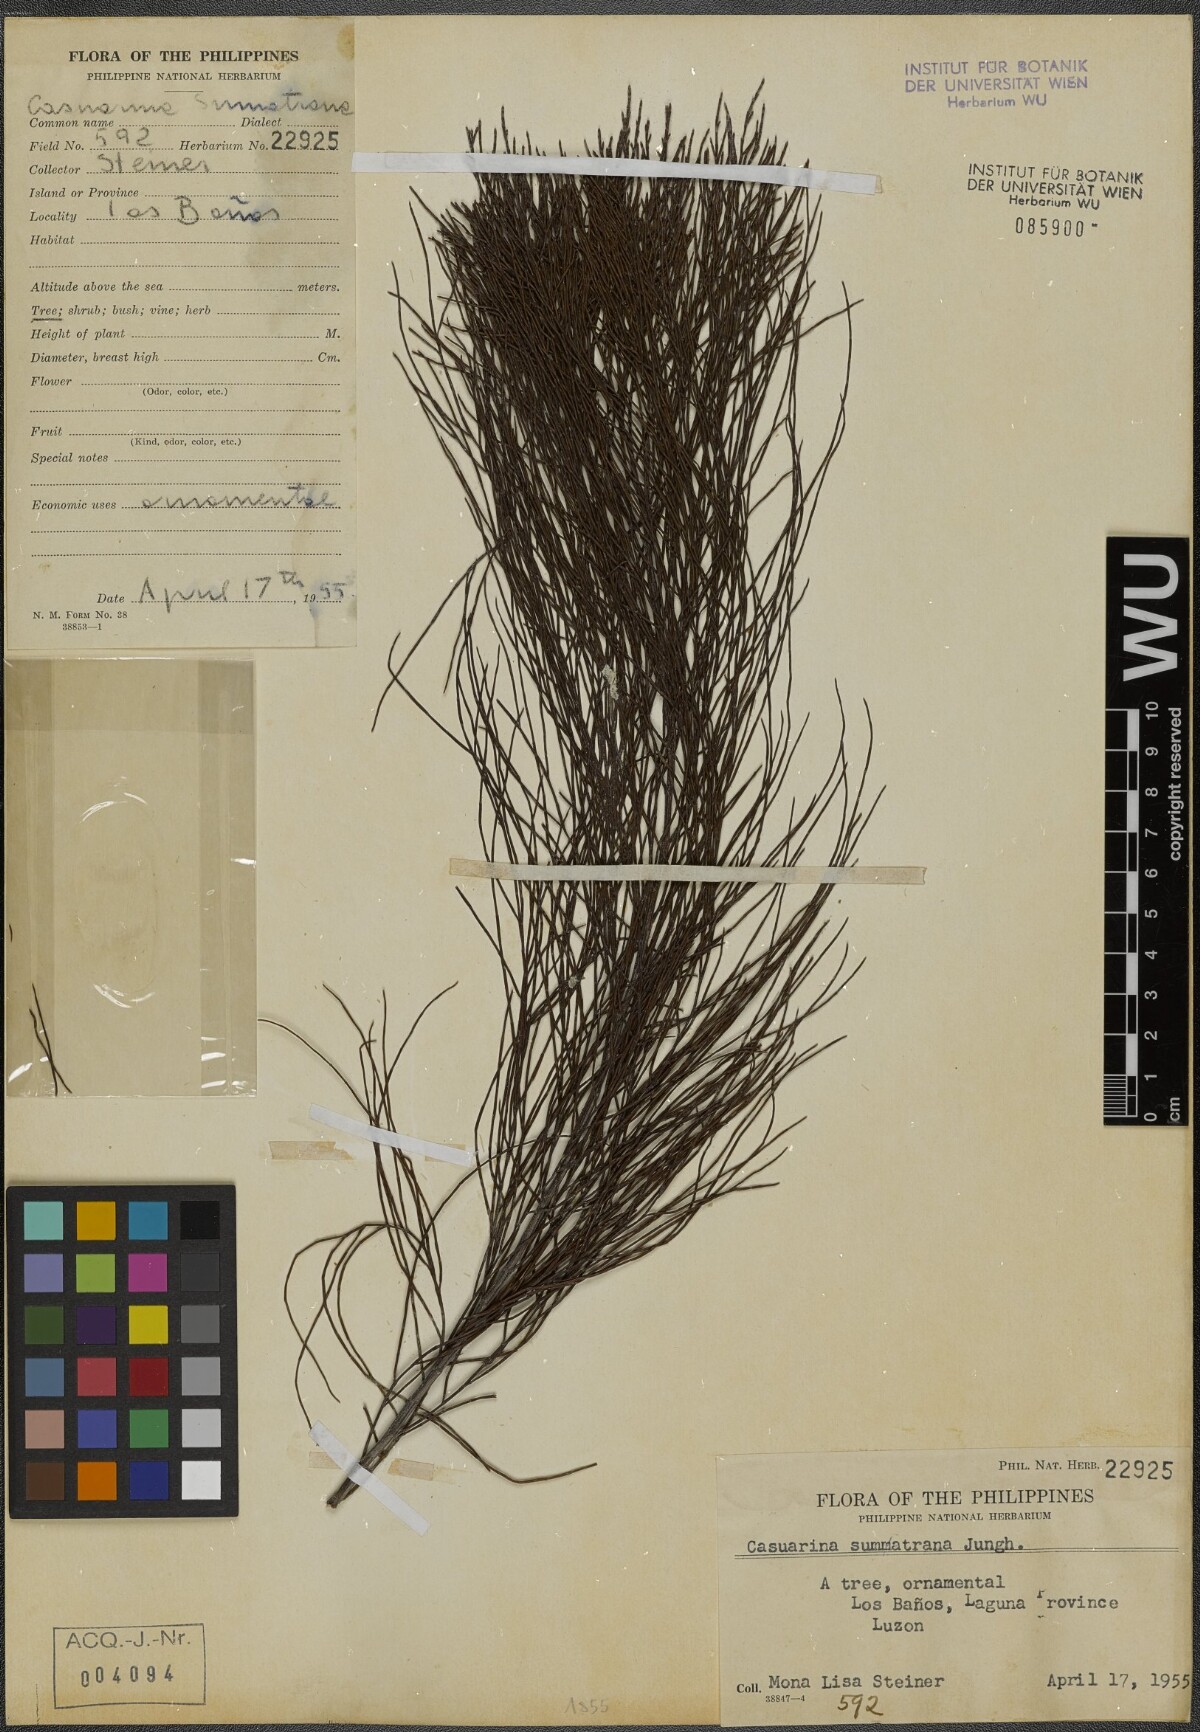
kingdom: Plantae
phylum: Tracheophyta
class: Magnoliopsida
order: Fagales
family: Casuarinaceae
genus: Gymnostoma
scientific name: Gymnostoma sumatranum
